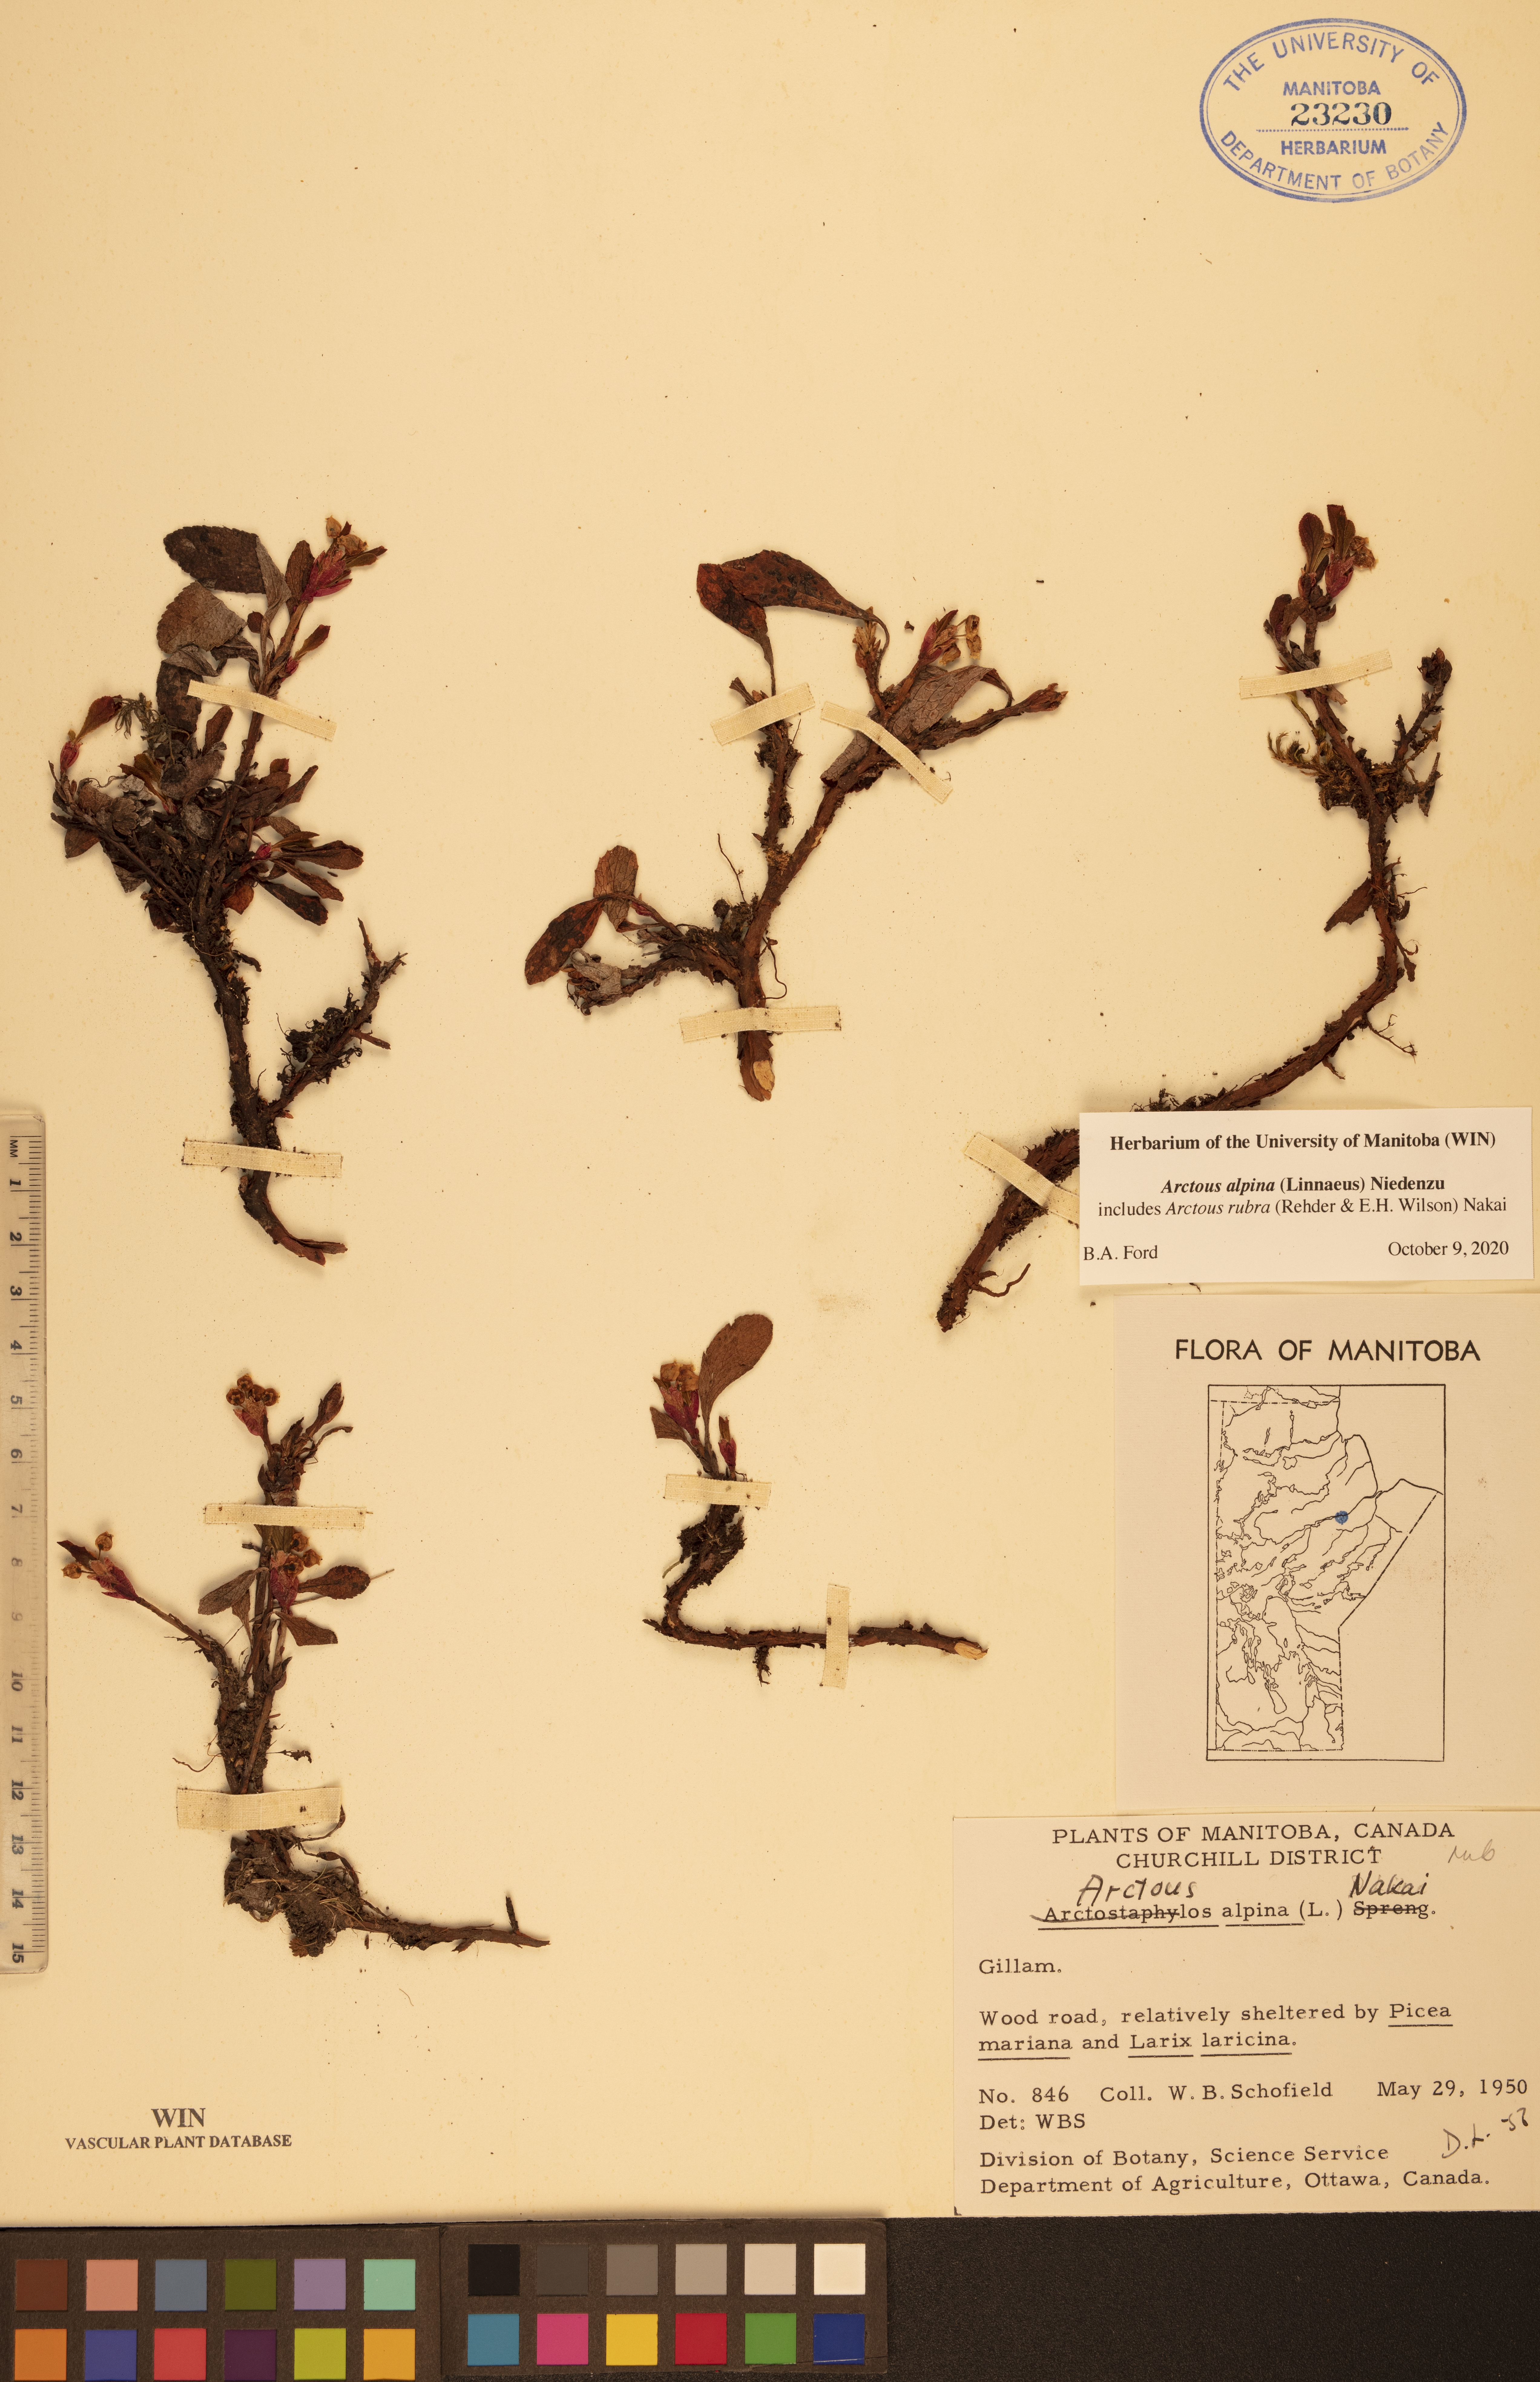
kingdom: Plantae
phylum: Tracheophyta
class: Magnoliopsida
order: Ericales
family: Ericaceae
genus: Arctostaphylos
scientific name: Arctostaphylos alpinus
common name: Alpine bearberry
